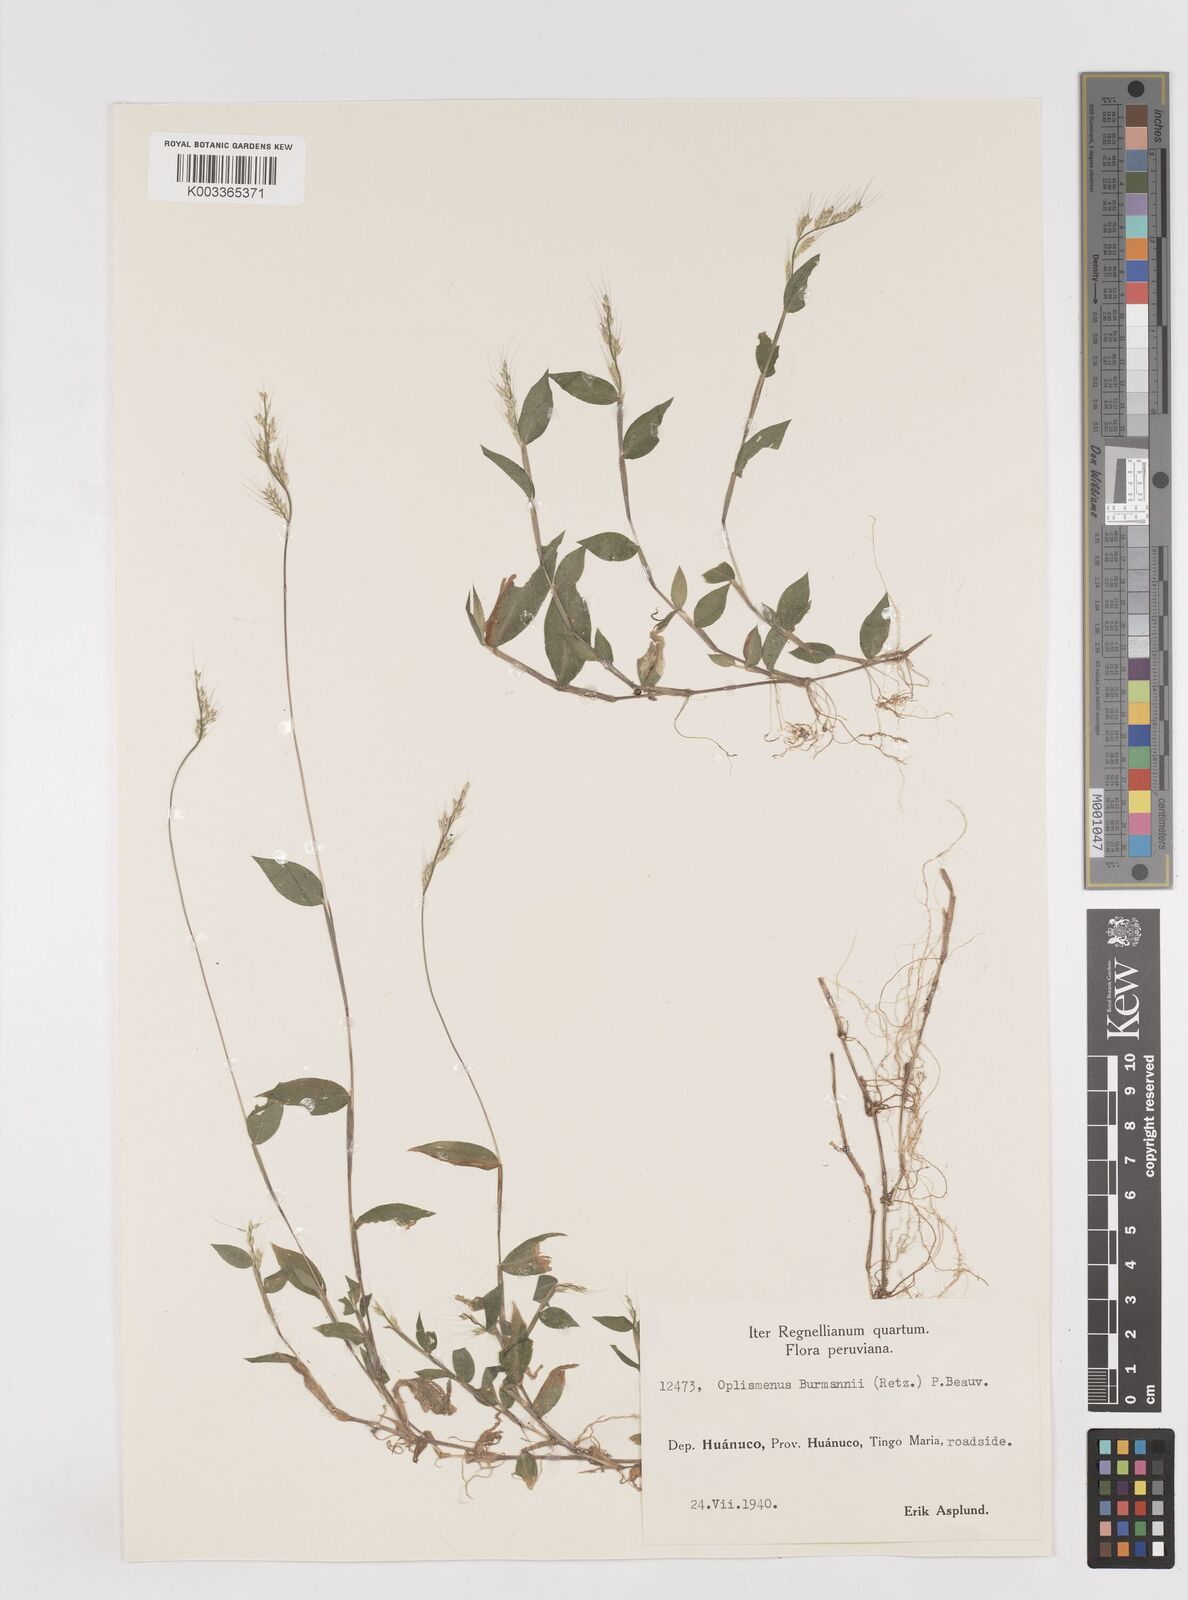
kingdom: Plantae
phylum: Tracheophyta
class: Liliopsida
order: Poales
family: Poaceae
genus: Oplismenus
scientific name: Oplismenus burmanni
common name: Burmann's basketgrass
